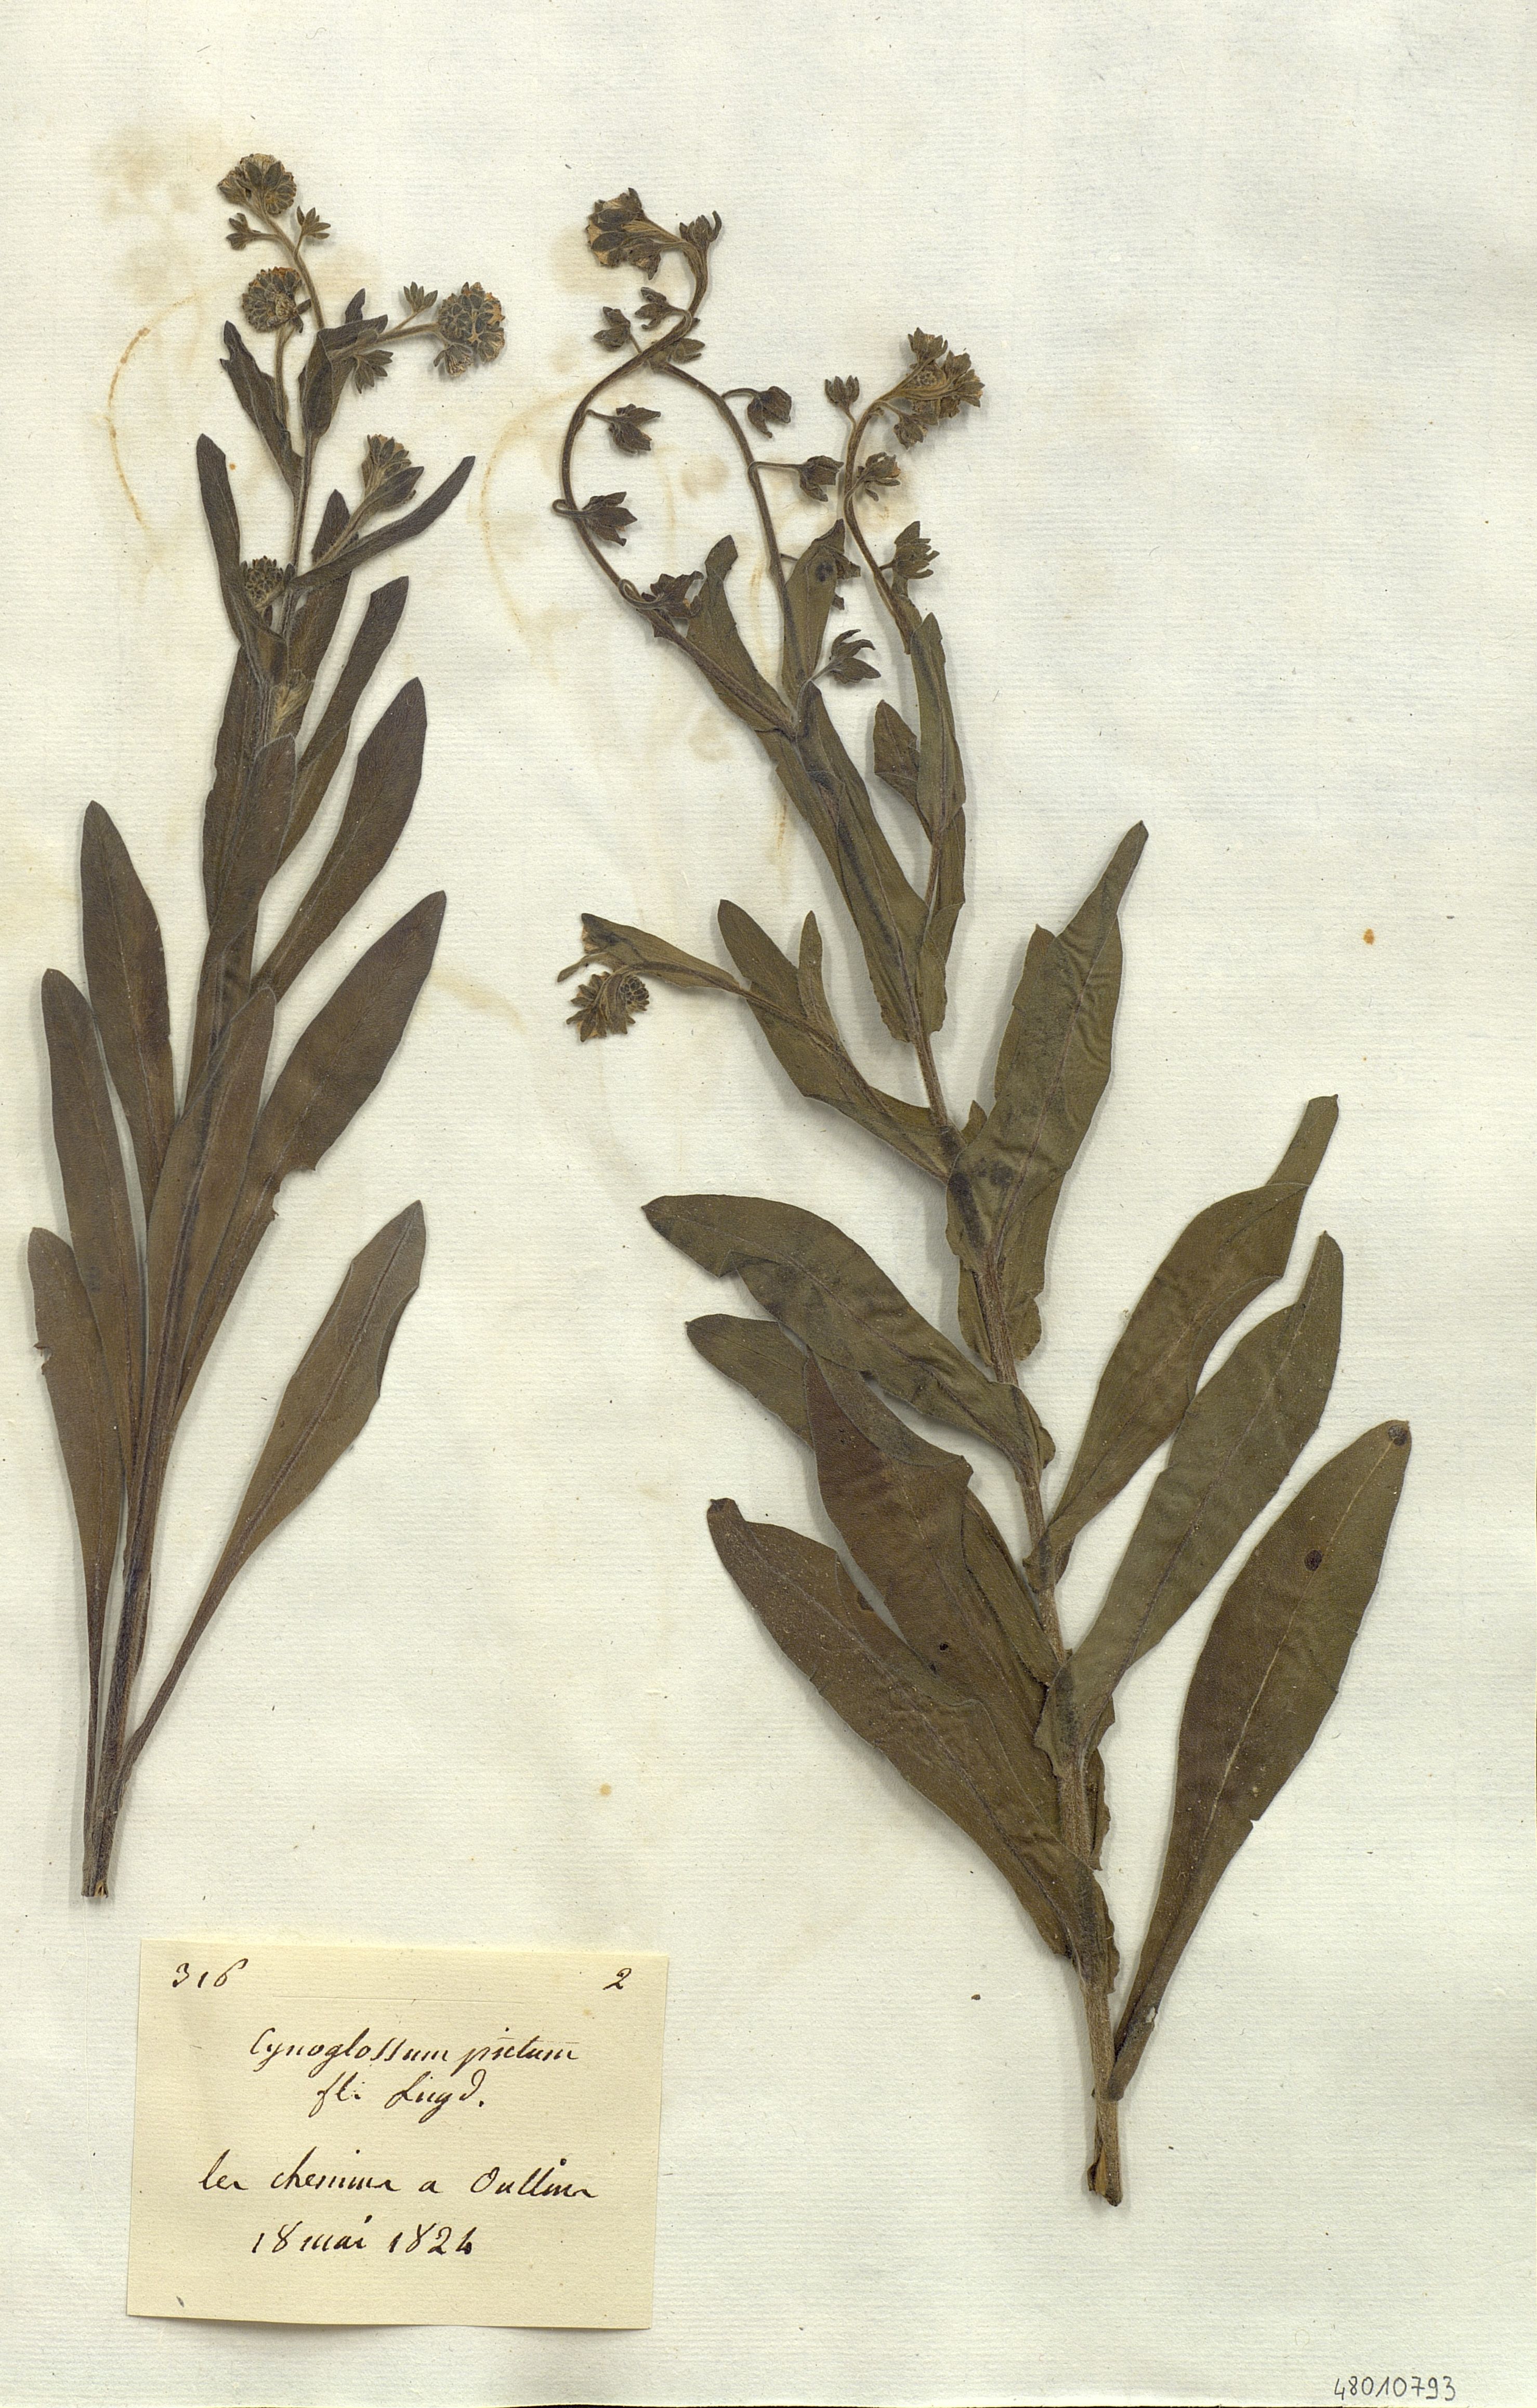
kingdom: Plantae
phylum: Tracheophyta
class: Magnoliopsida
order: Boraginales
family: Boraginaceae
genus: Cynoglossum
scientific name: Cynoglossum creticum
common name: Blue hound's tongue
